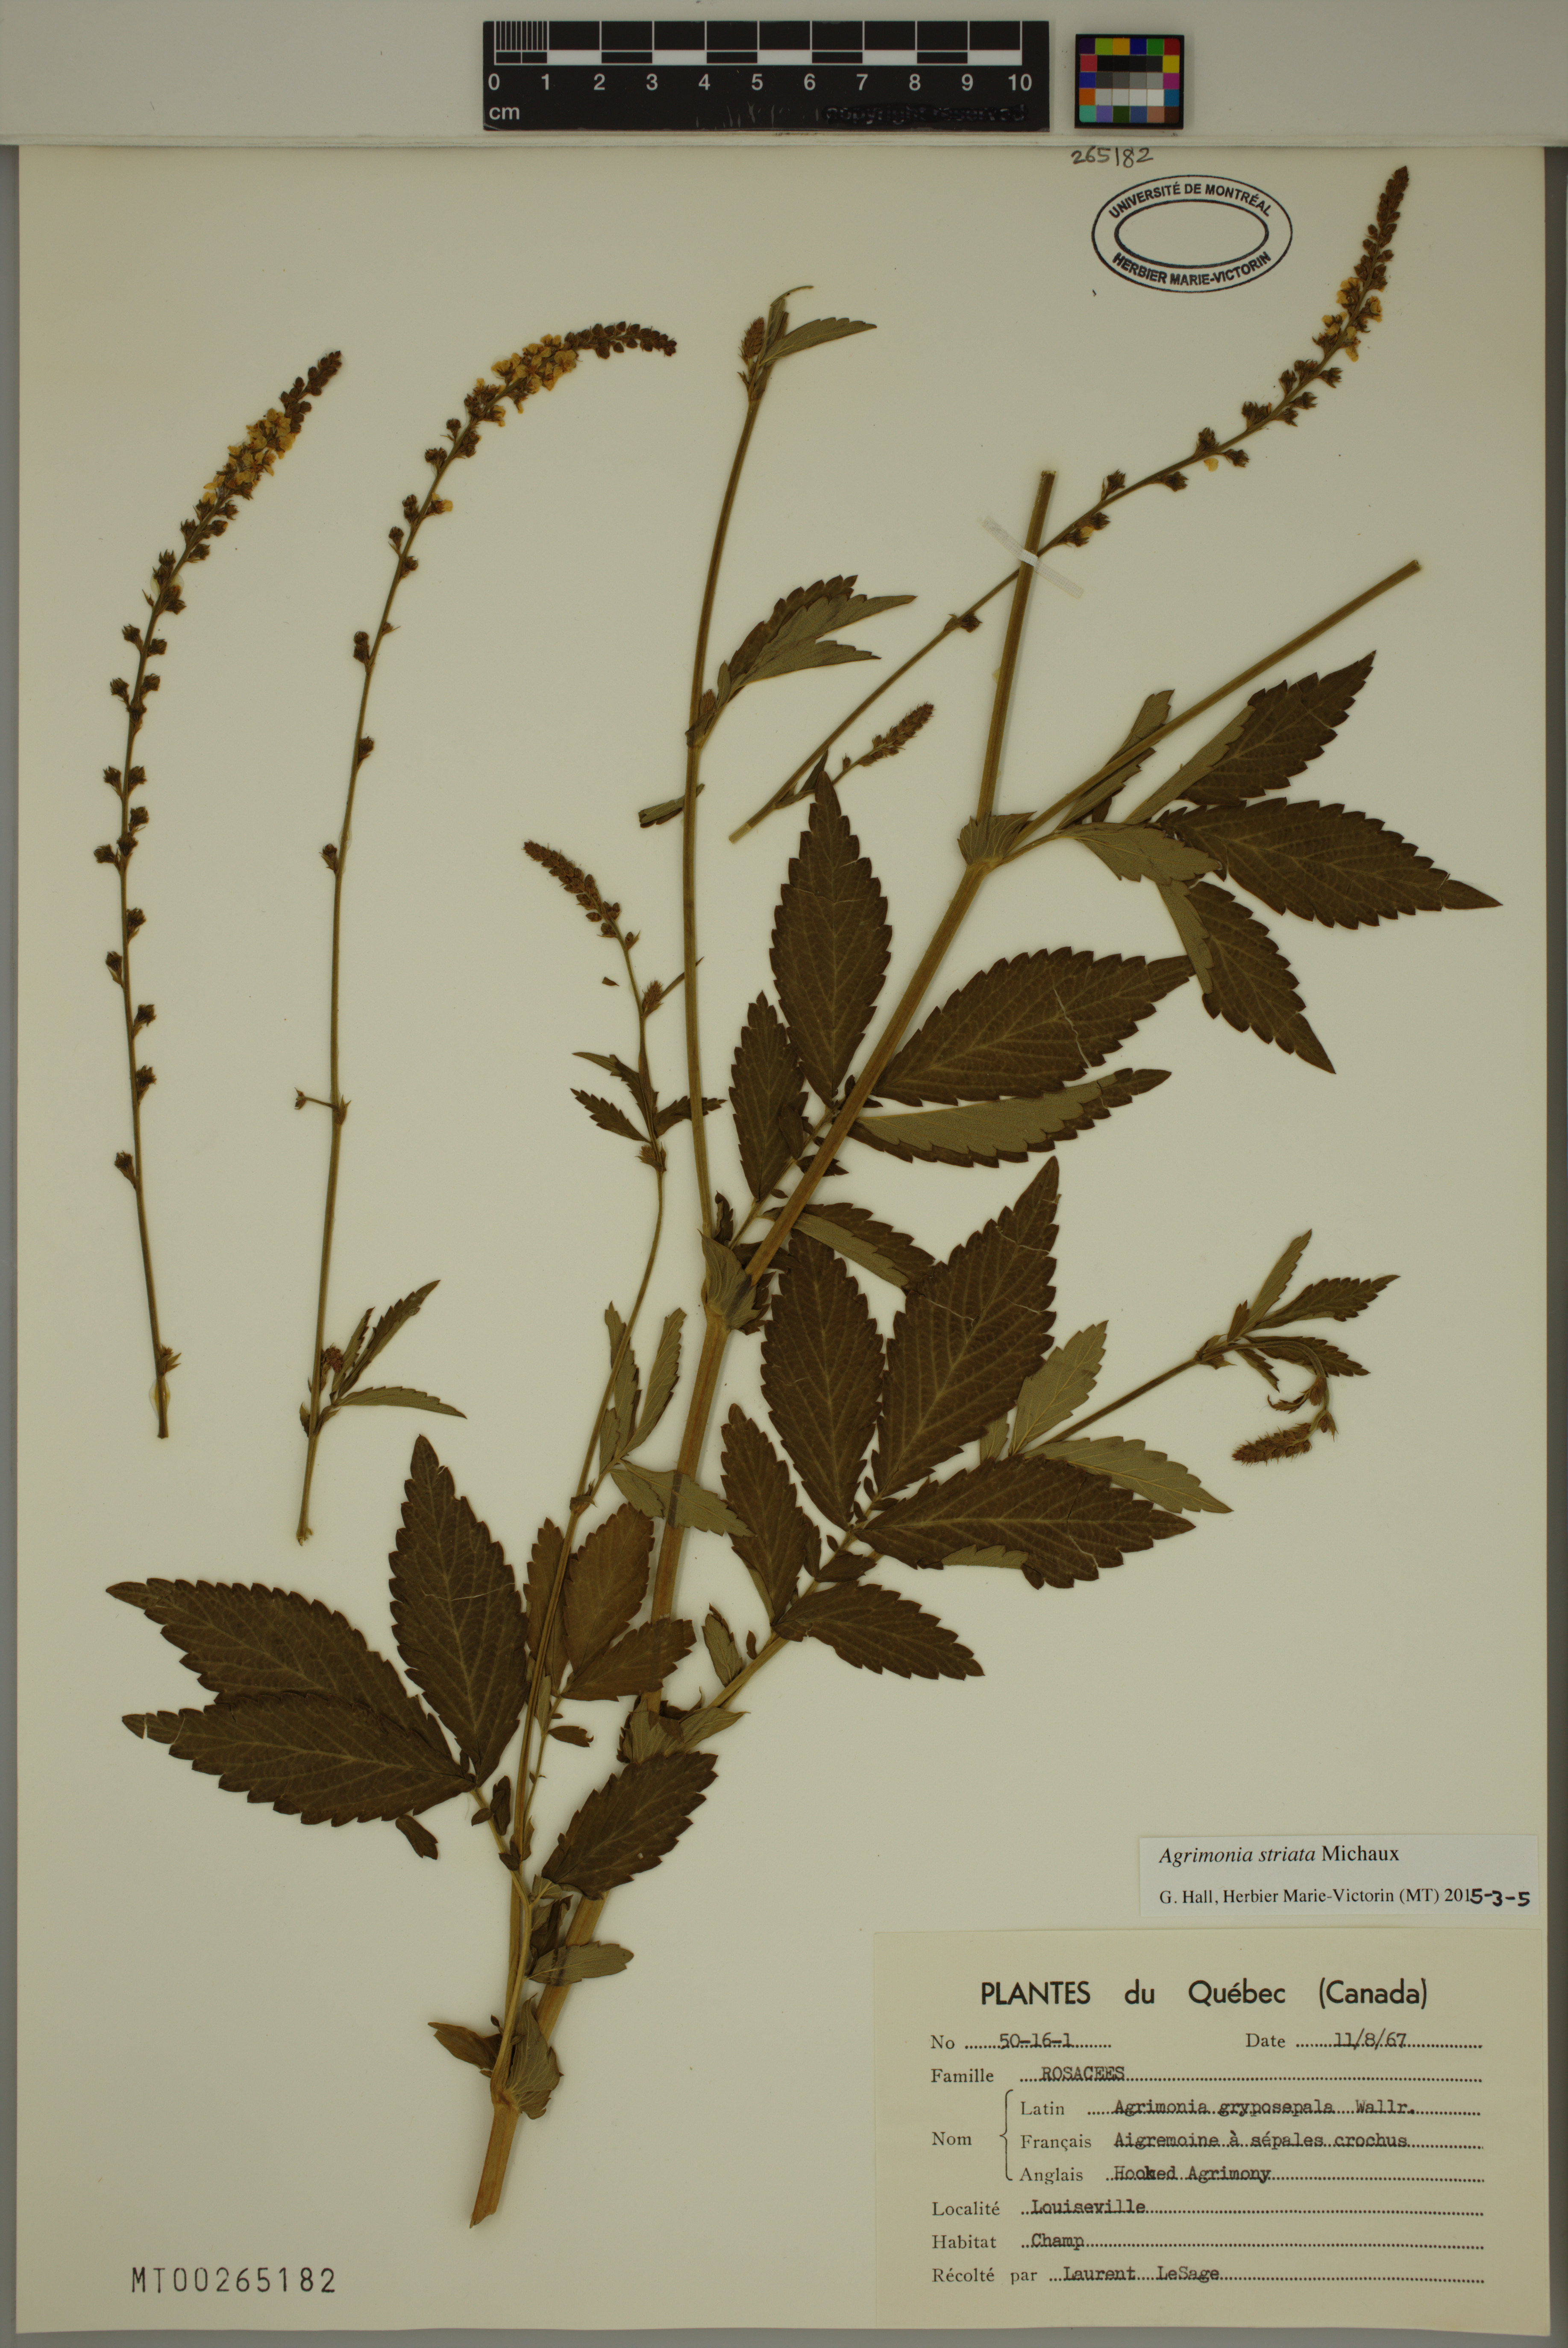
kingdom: Plantae
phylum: Tracheophyta
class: Magnoliopsida
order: Rosales
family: Rosaceae
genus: Agrimonia
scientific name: Agrimonia striata
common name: Britton's agrimony
